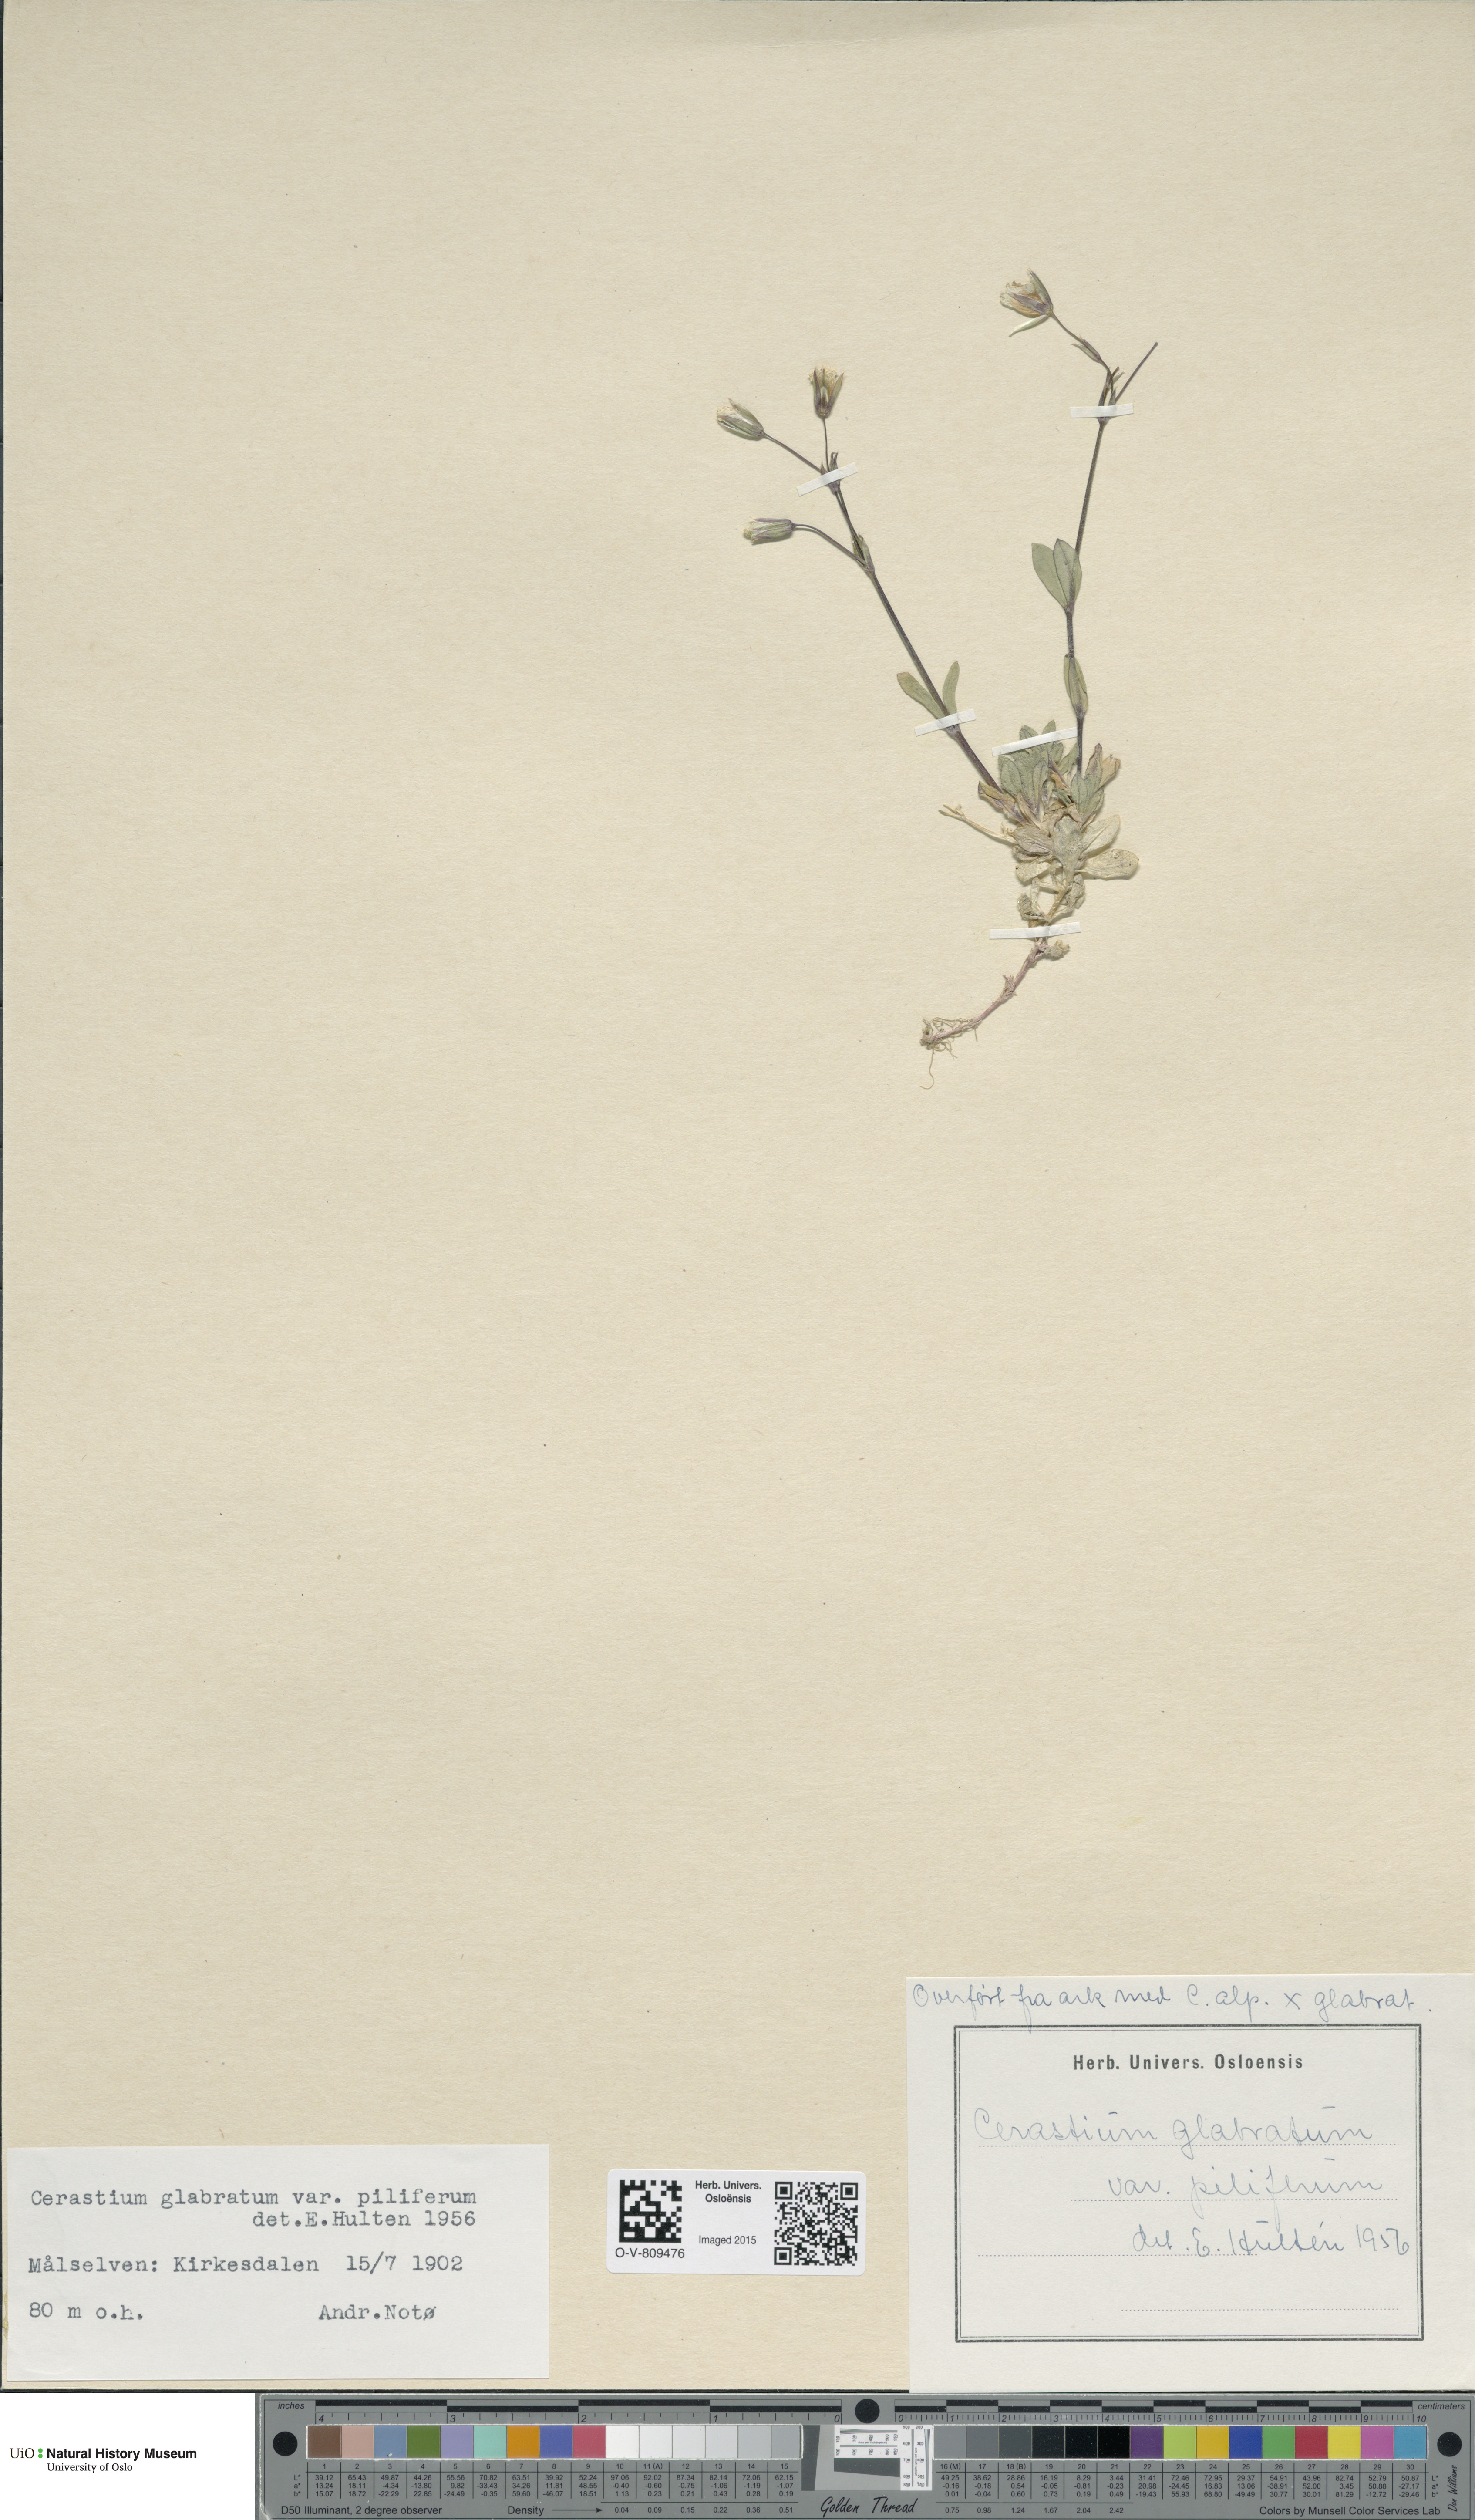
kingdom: Plantae
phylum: Tracheophyta
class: Magnoliopsida
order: Caryophyllales
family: Caryophyllaceae
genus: Cerastium
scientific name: Cerastium alpinum
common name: Alpine mouse-ear
